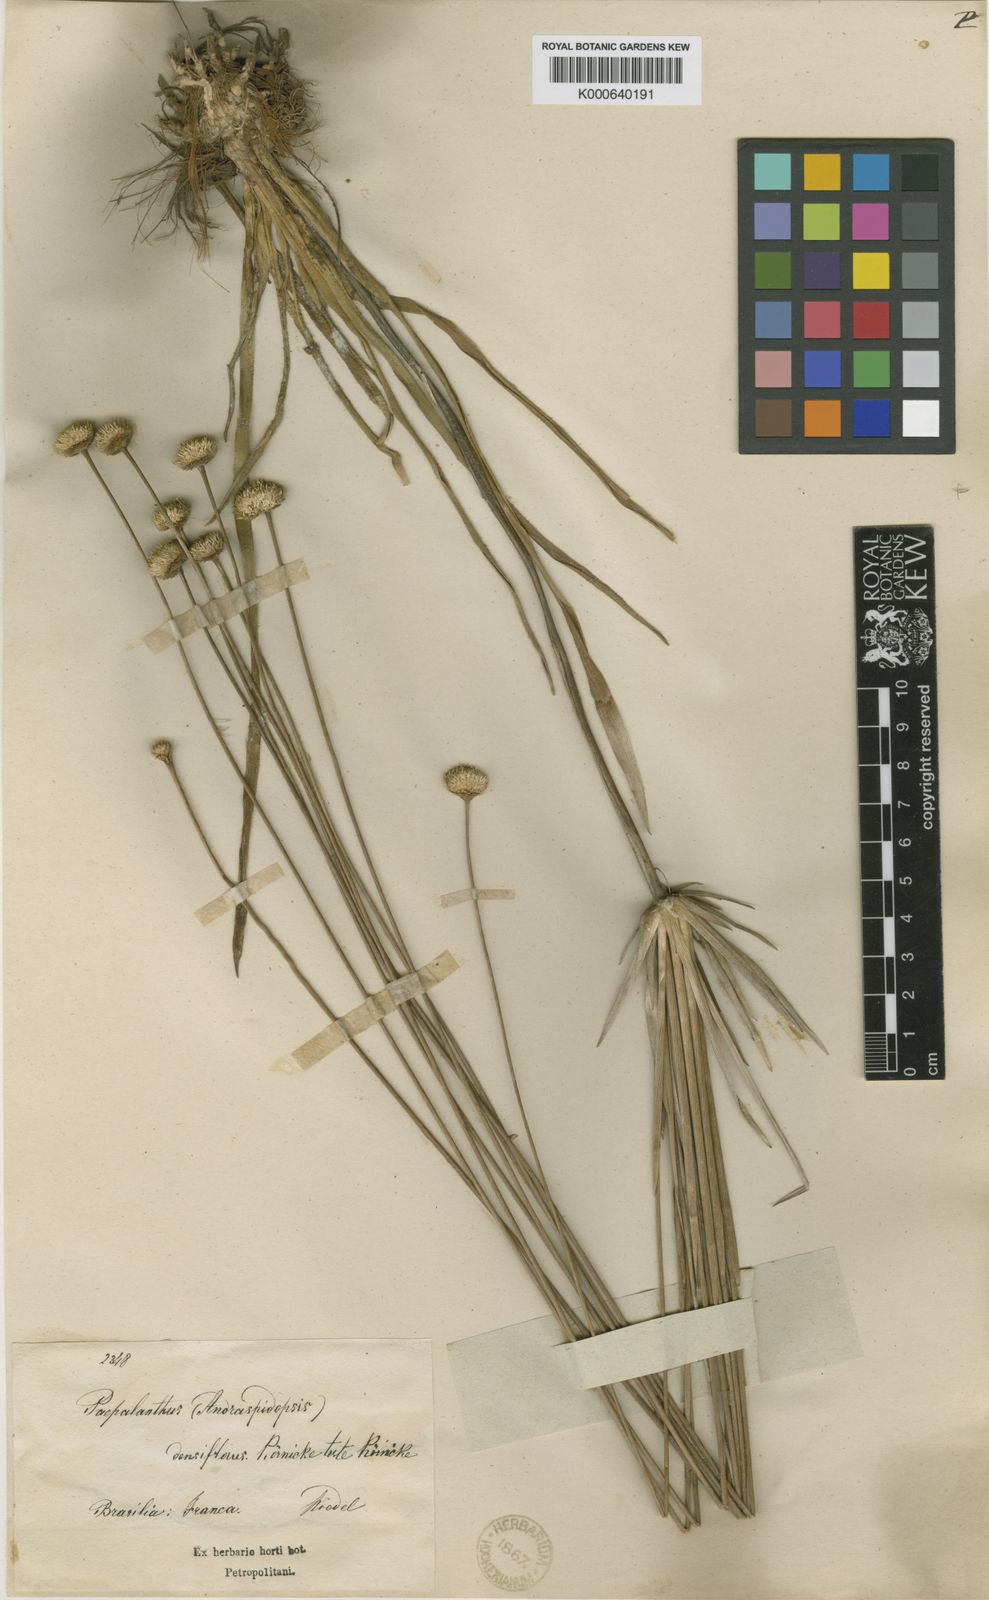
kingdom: Plantae
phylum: Tracheophyta
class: Liliopsida
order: Poales
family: Eriocaulaceae
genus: Syngonanthus
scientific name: Syngonanthus
